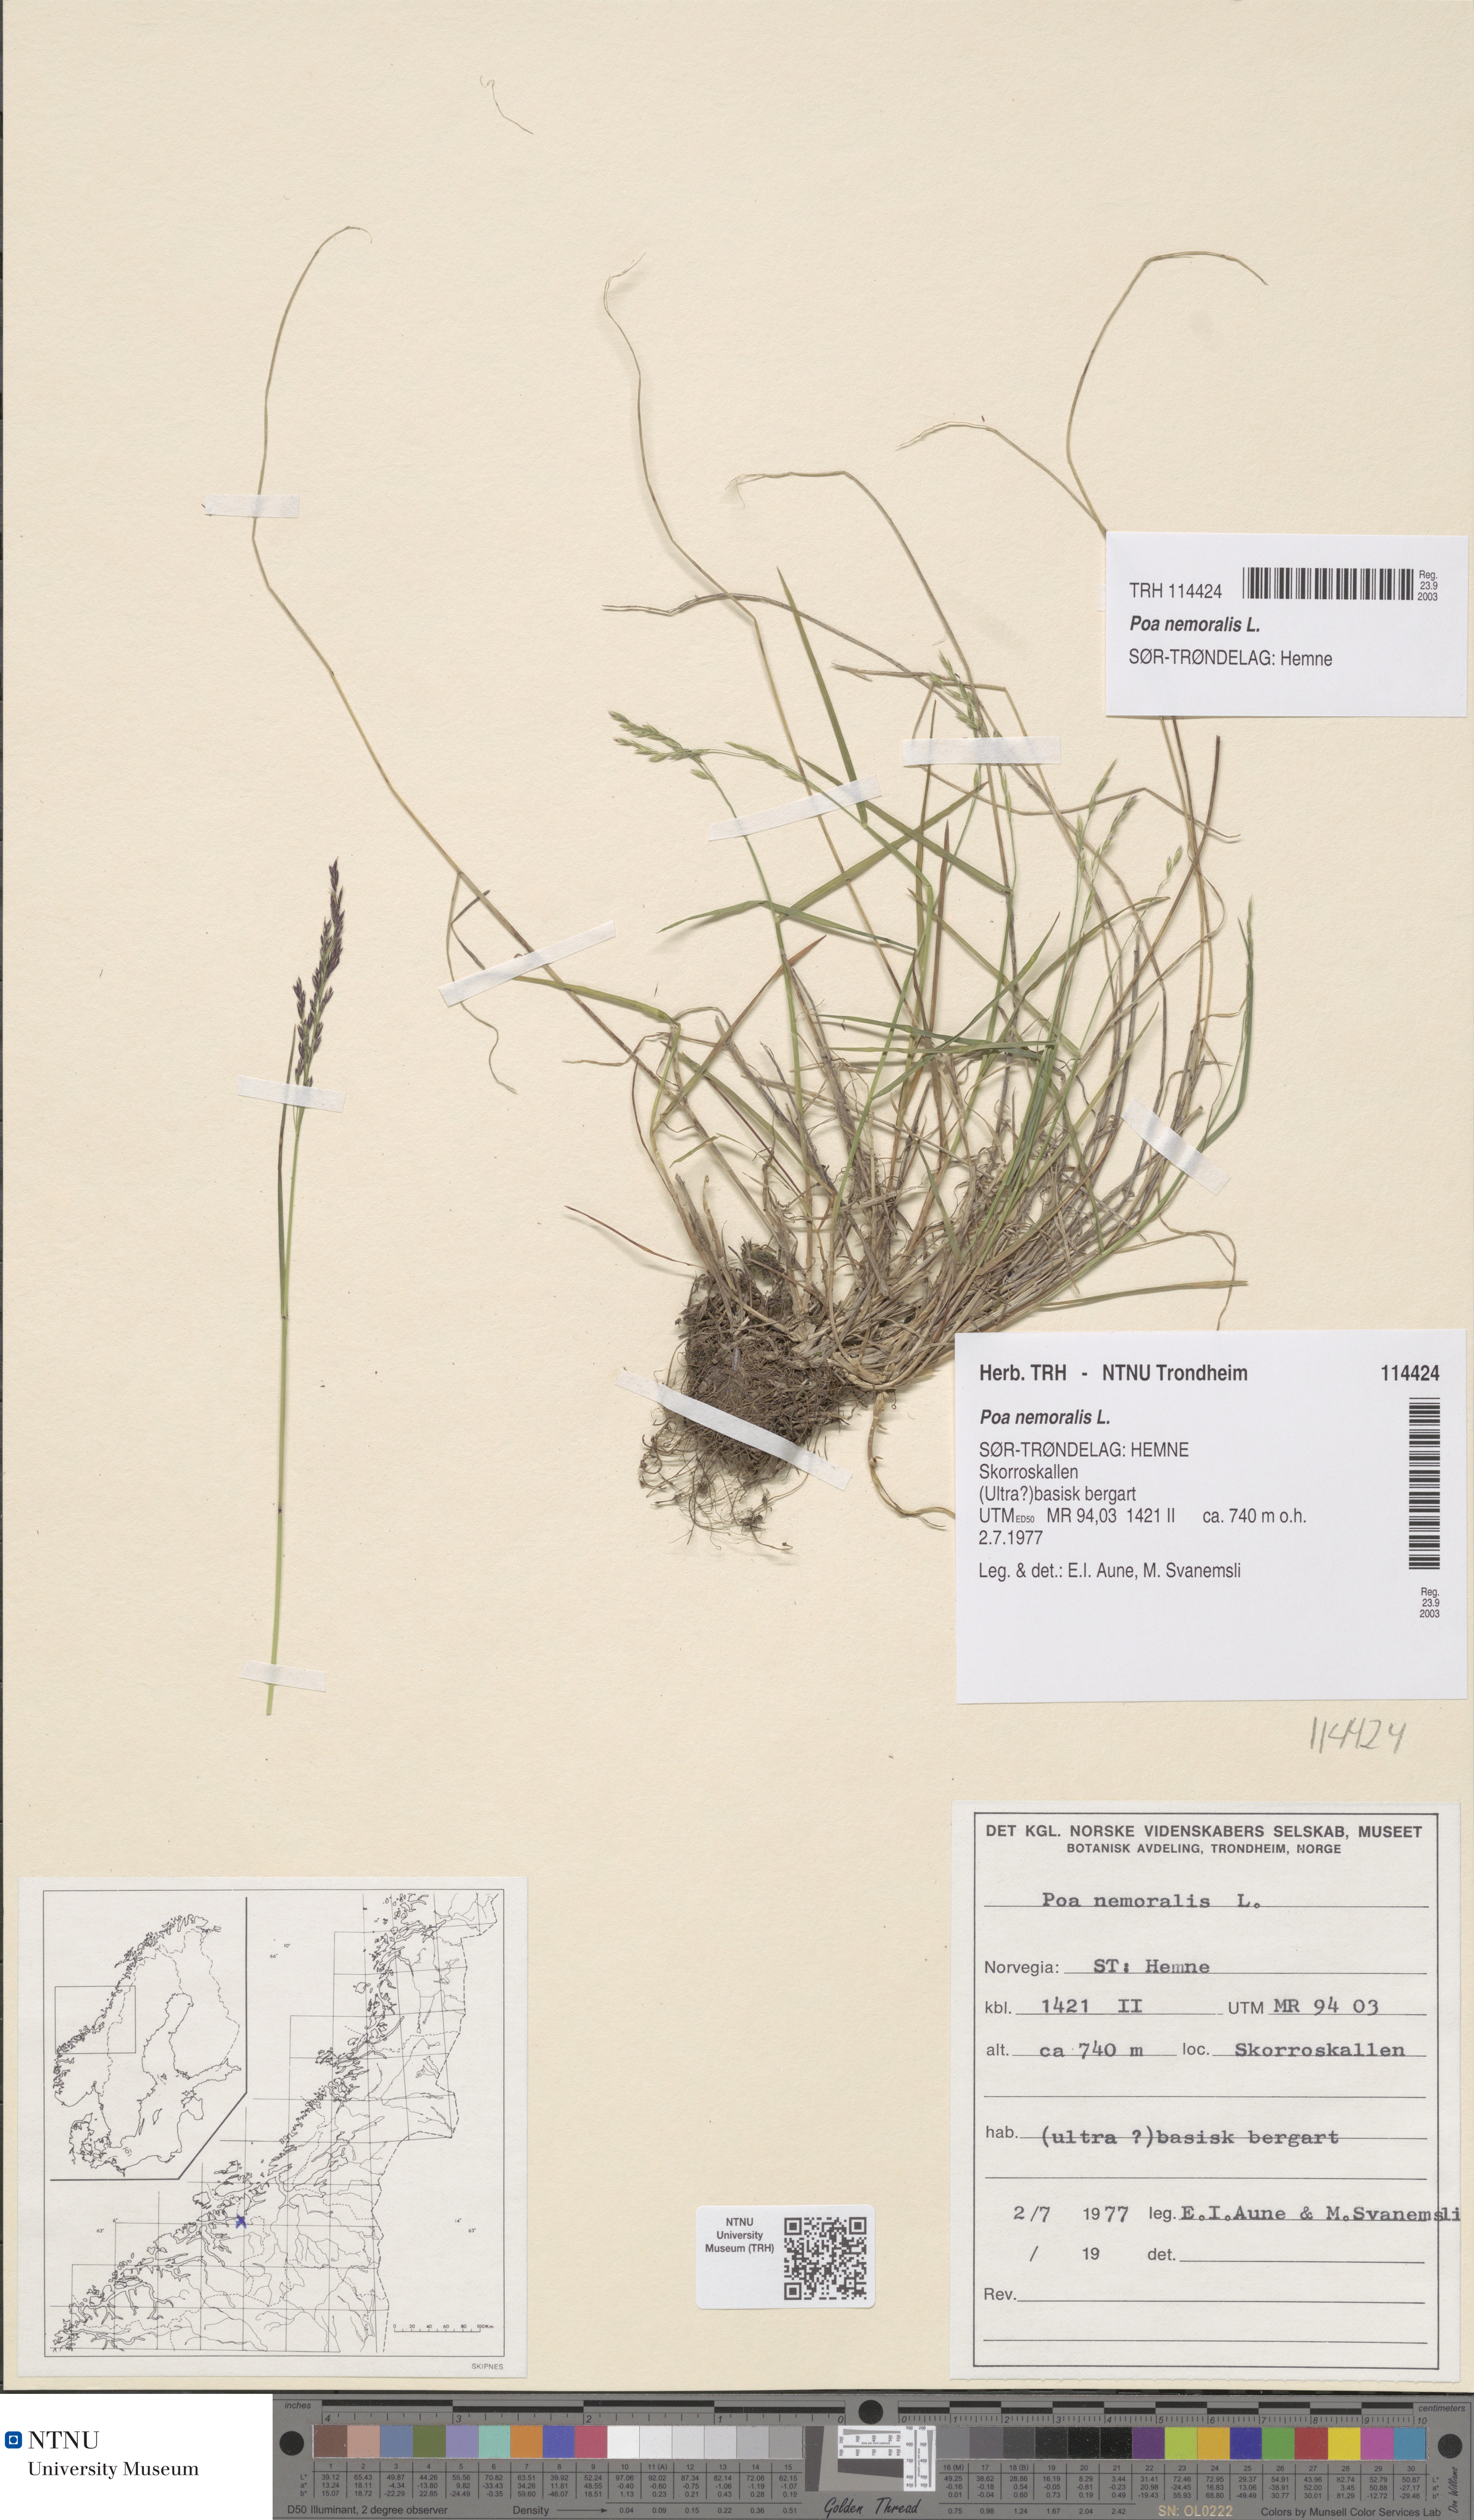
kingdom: Plantae
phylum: Tracheophyta
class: Liliopsida
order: Poales
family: Poaceae
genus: Poa
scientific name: Poa nemoralis
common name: Wood bluegrass
